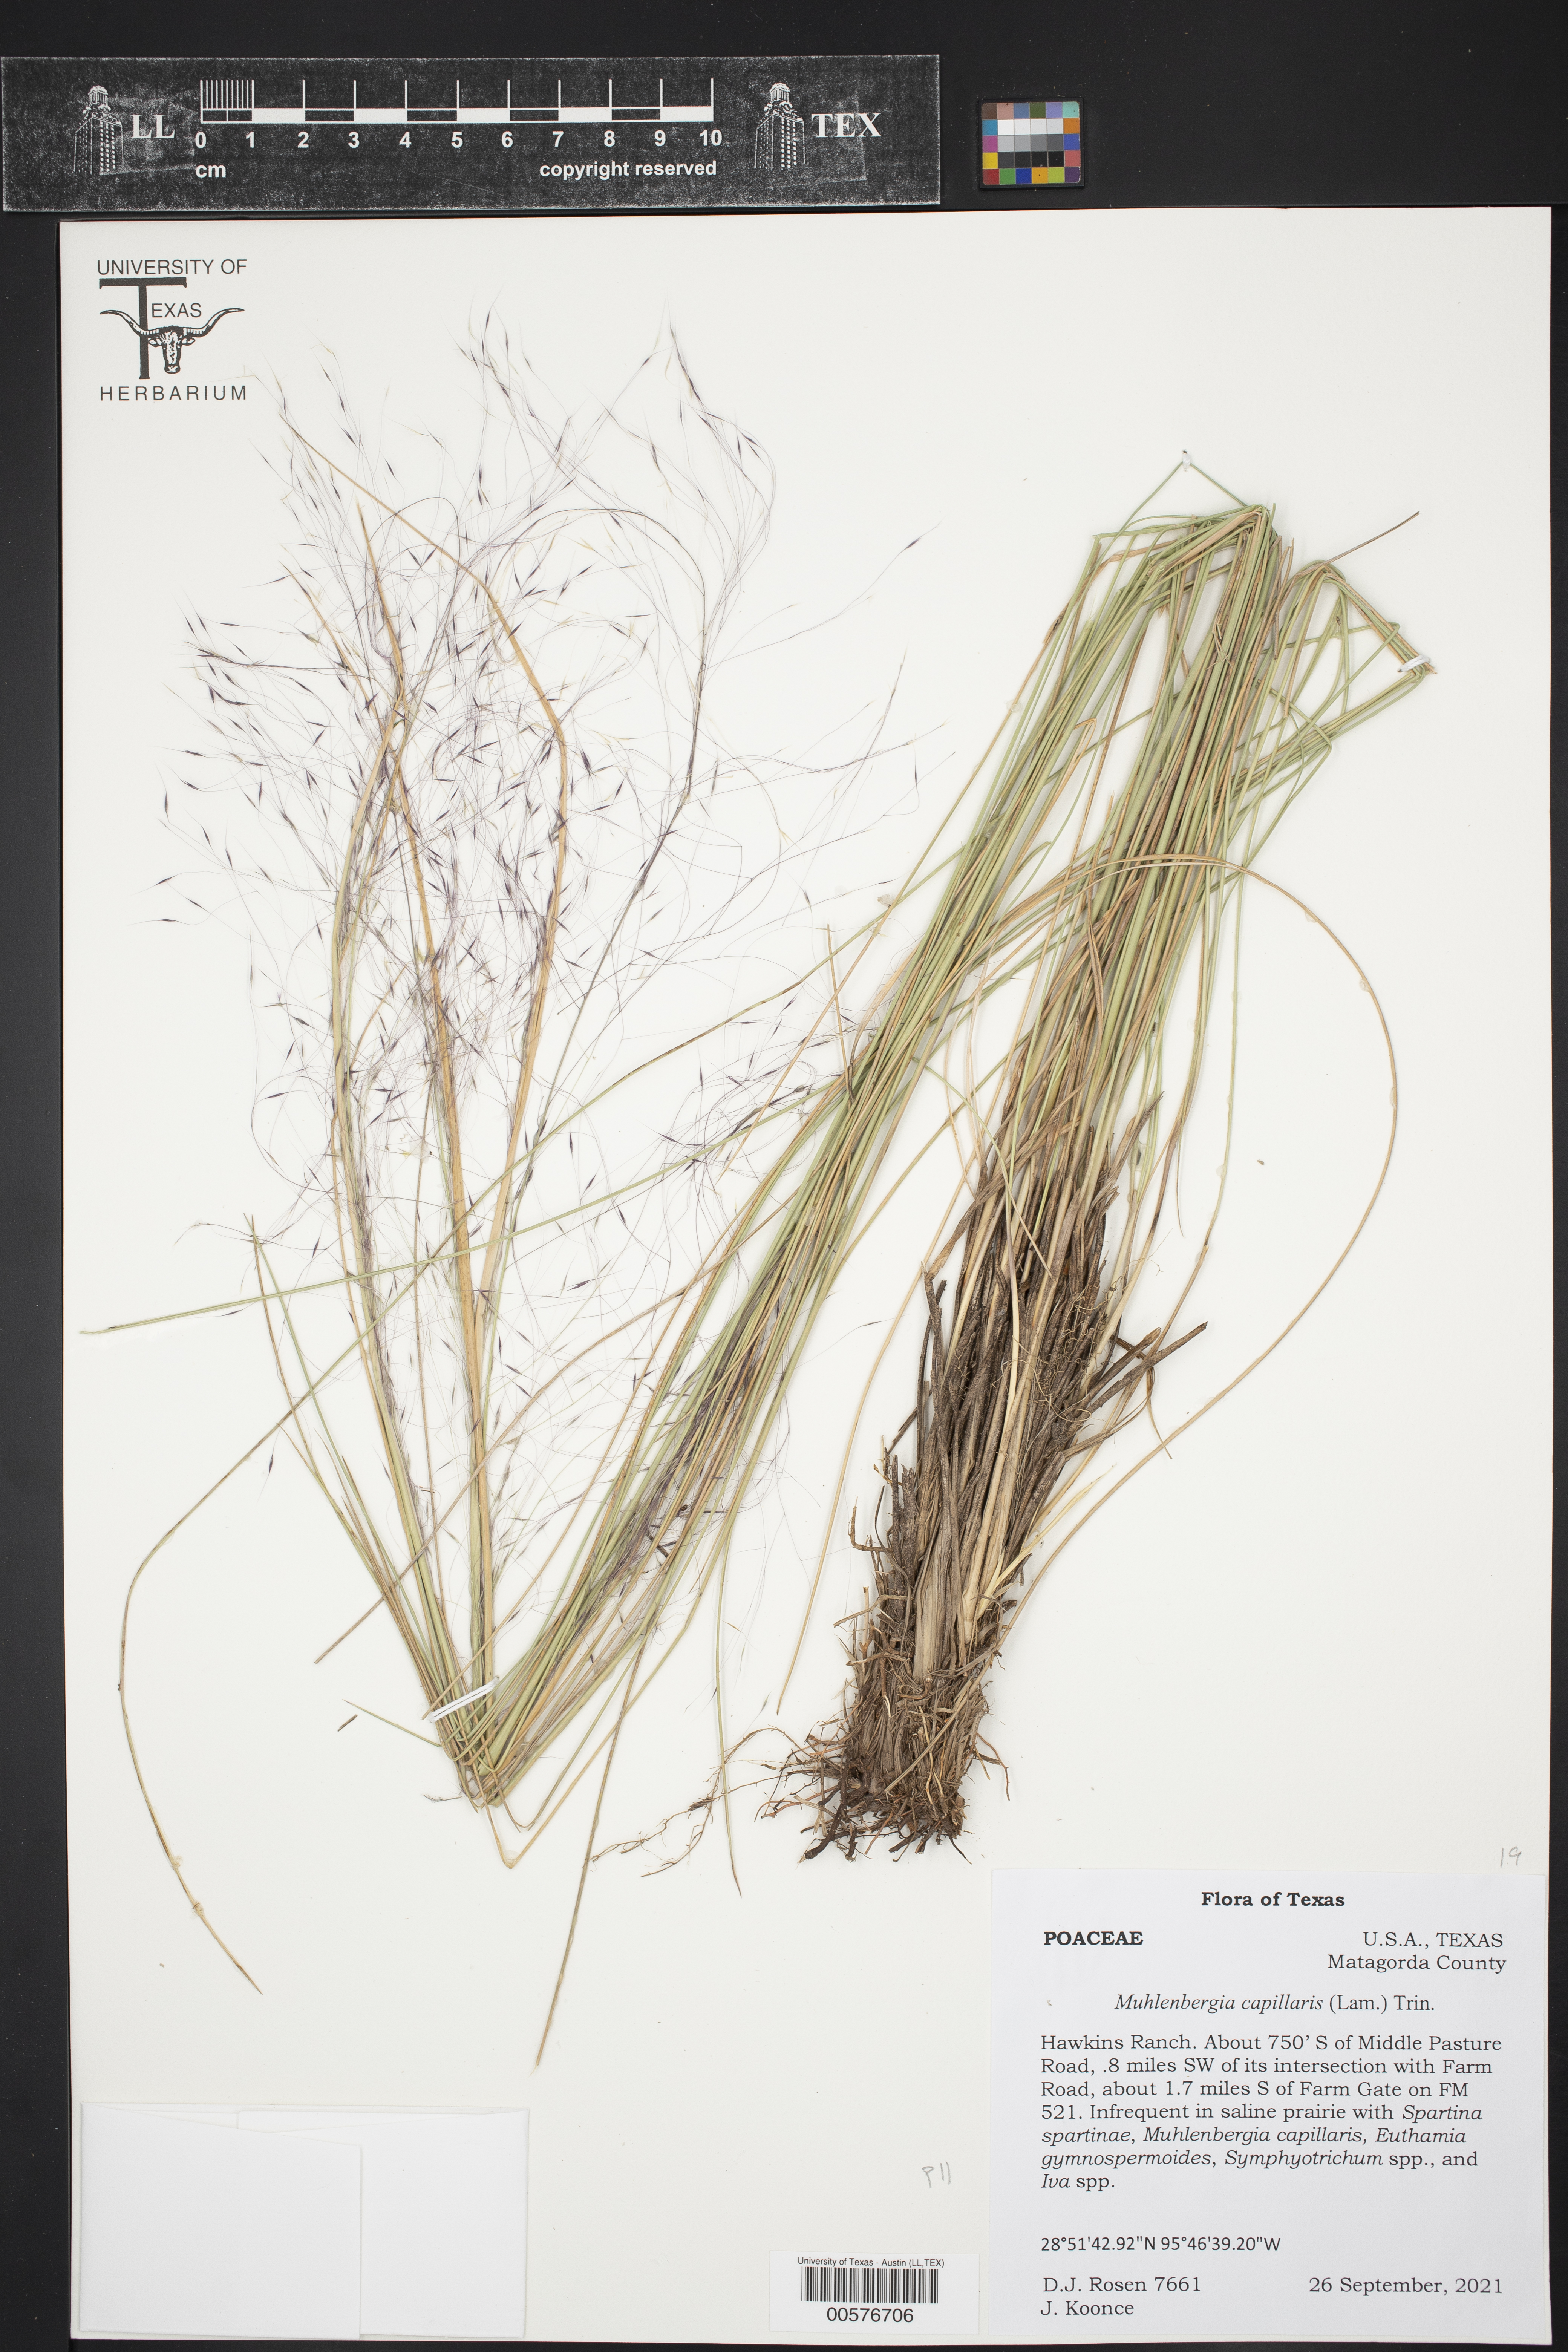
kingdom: Plantae
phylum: Tracheophyta
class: Liliopsida
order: Poales
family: Poaceae
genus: Muhlenbergia
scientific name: Muhlenbergia capillaris
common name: Purple grass
